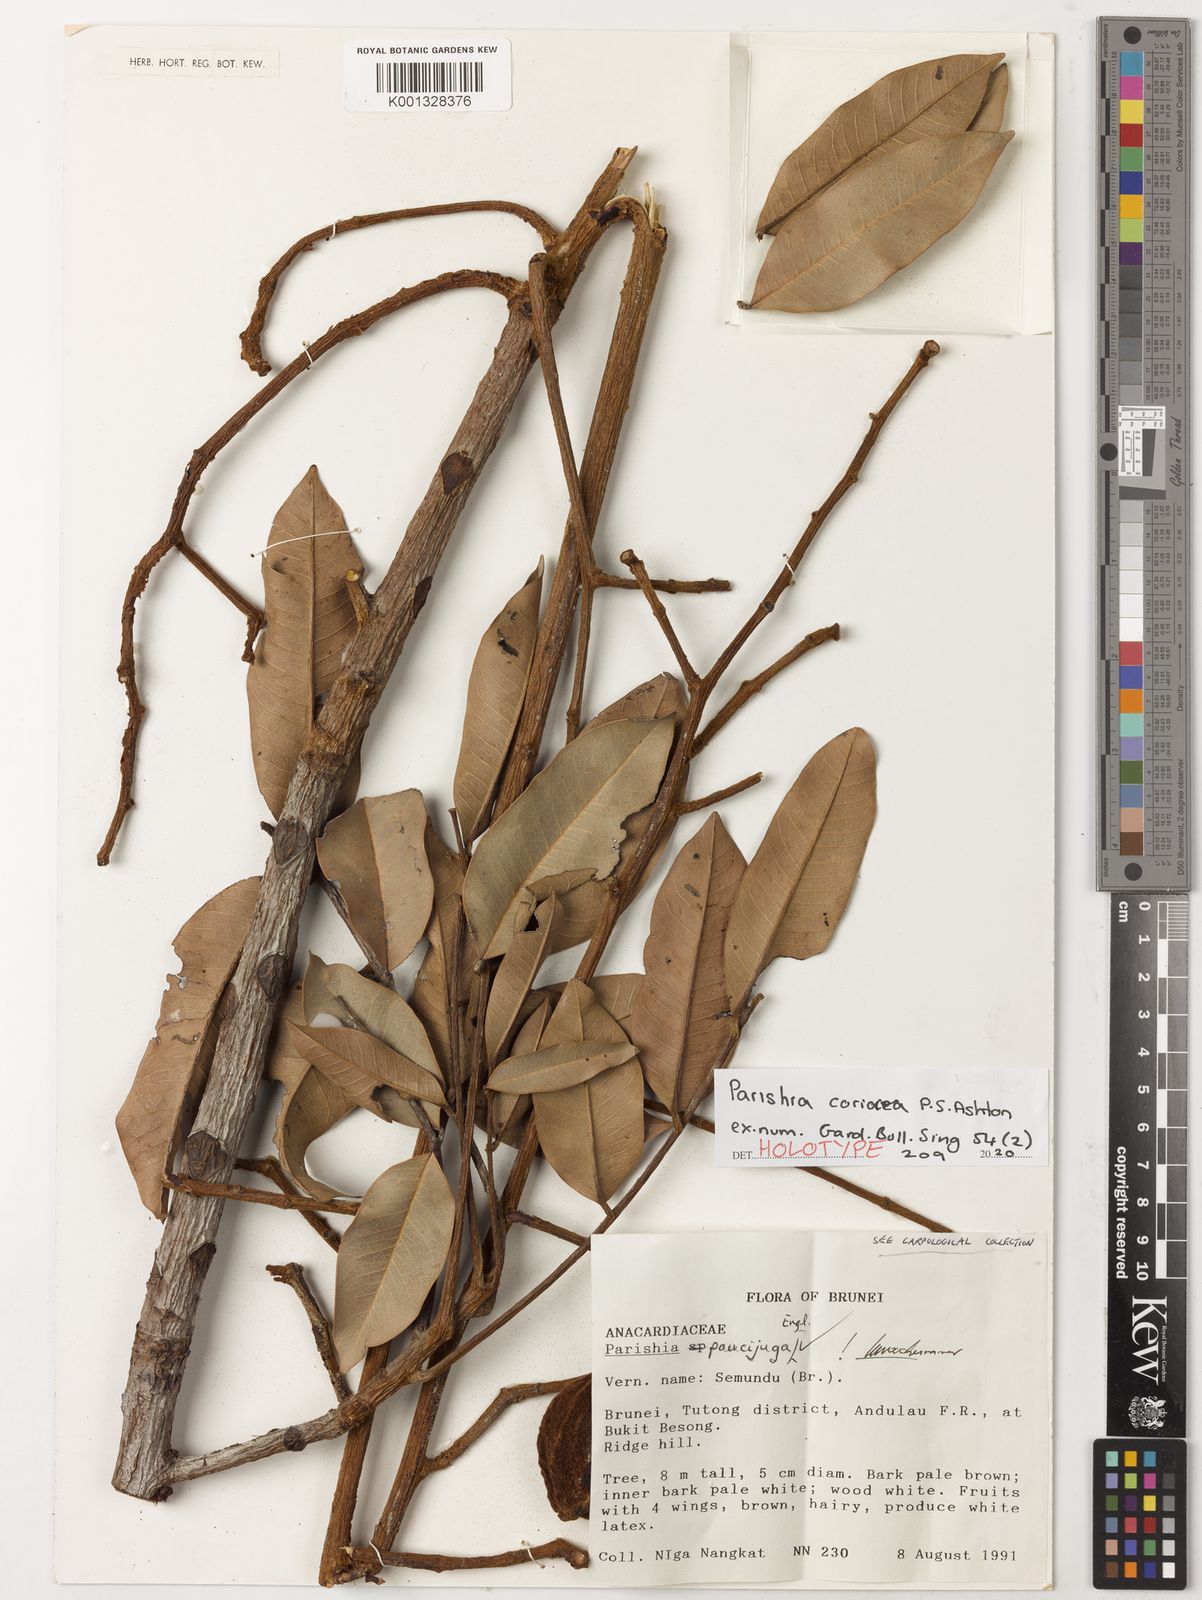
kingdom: Plantae
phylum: Tracheophyta
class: Magnoliopsida
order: Sapindales
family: Anacardiaceae
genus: Parishia
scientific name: Parishia coriacea
